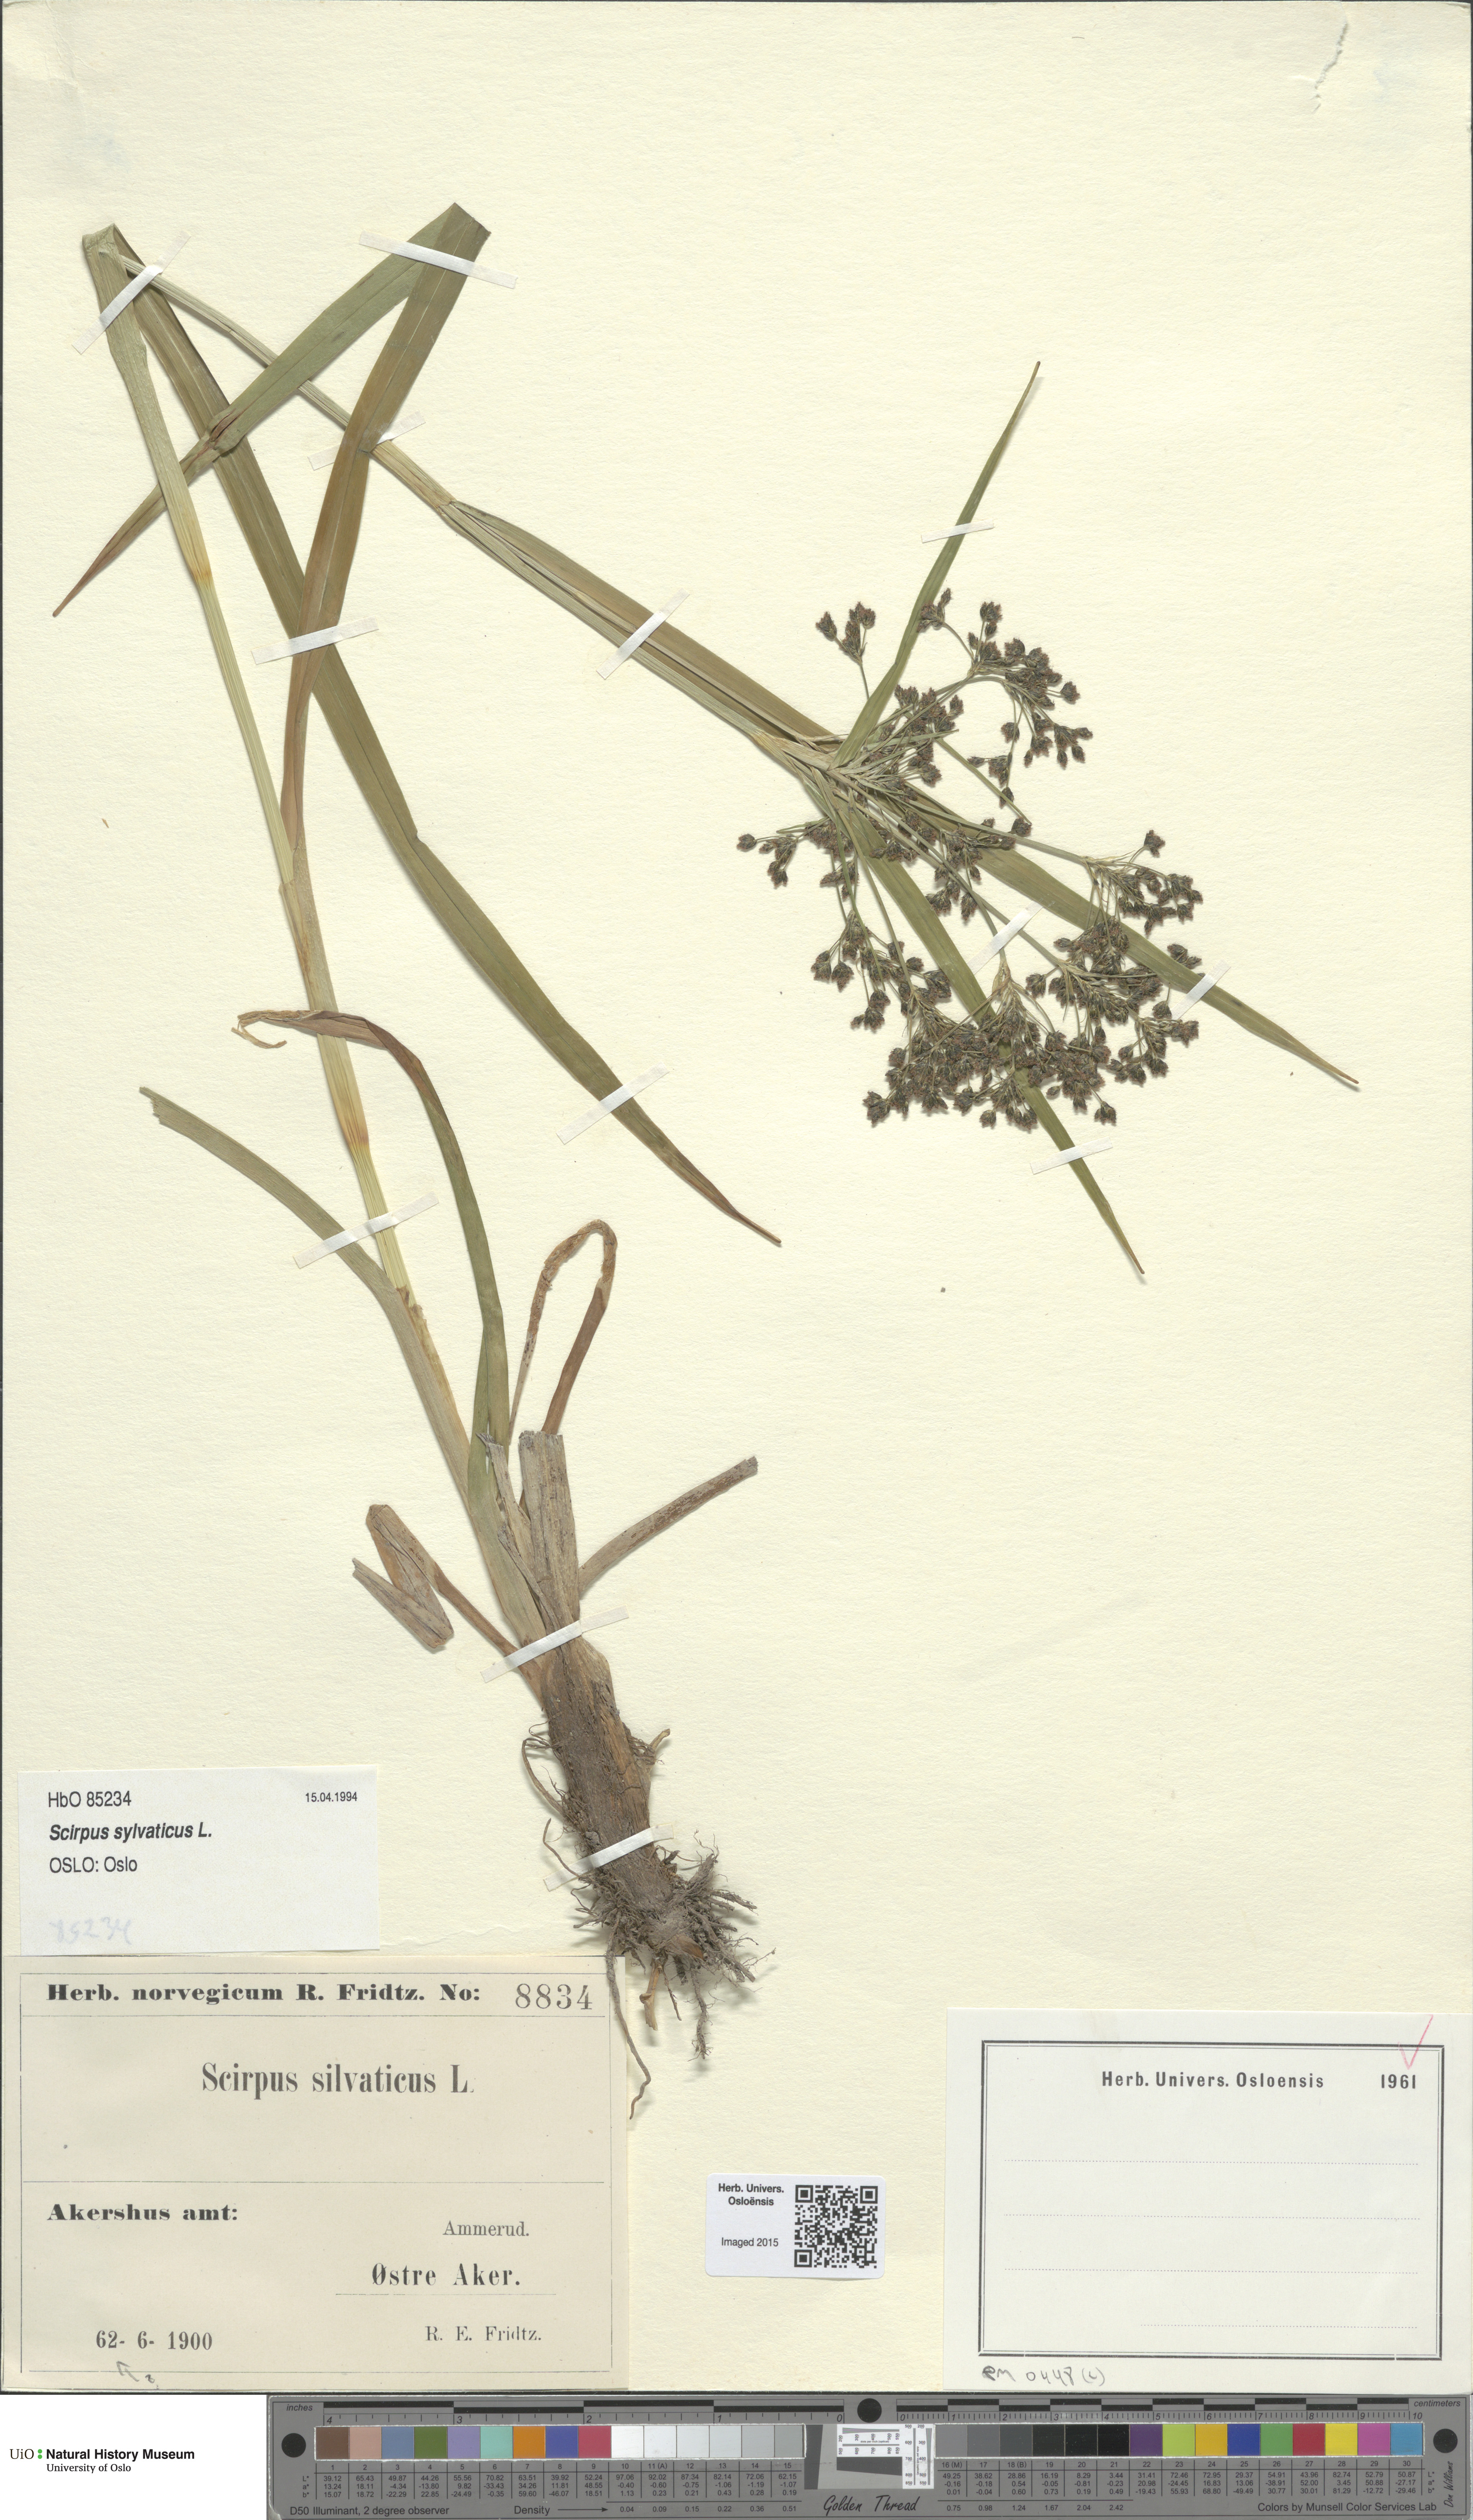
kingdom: Plantae
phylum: Tracheophyta
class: Liliopsida
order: Poales
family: Cyperaceae
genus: Scirpus
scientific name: Scirpus sylvaticus
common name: Wood club-rush
